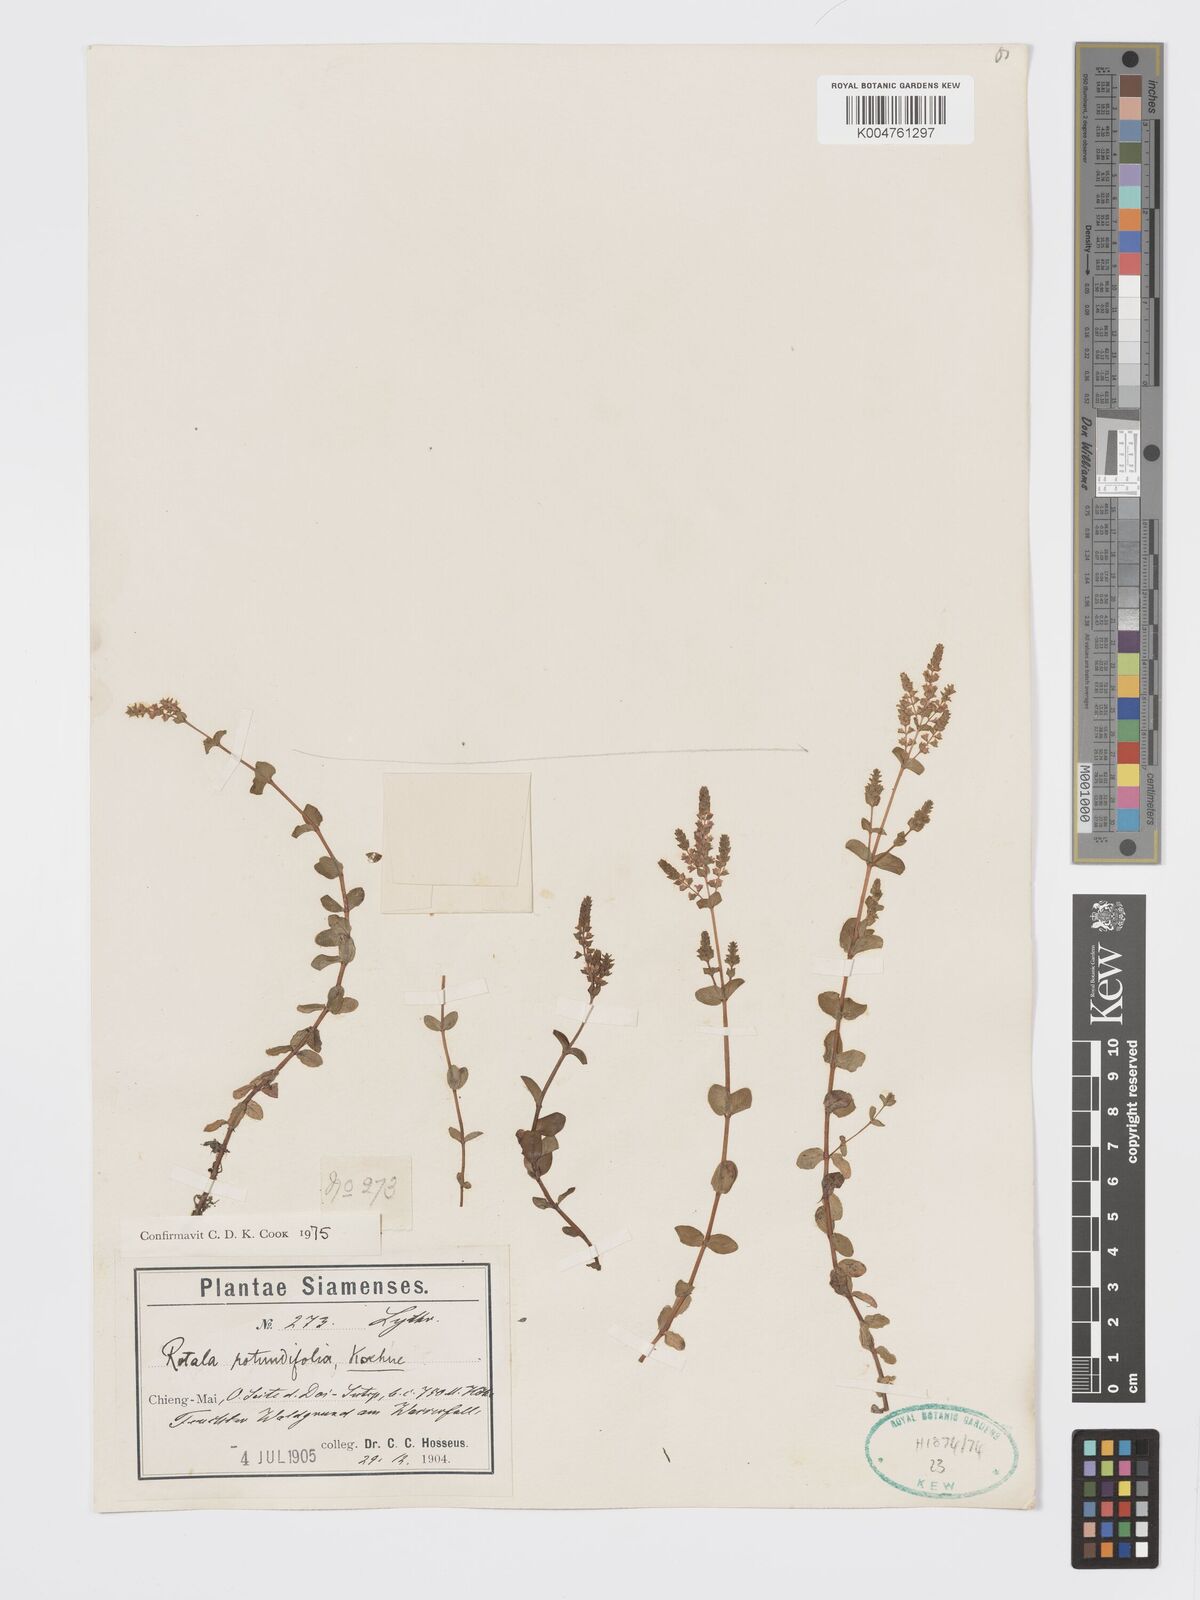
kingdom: Plantae
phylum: Tracheophyta
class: Magnoliopsida
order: Myrtales
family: Lythraceae
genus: Rotala
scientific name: Rotala rotundifolia
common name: Roundleaf toothcup
